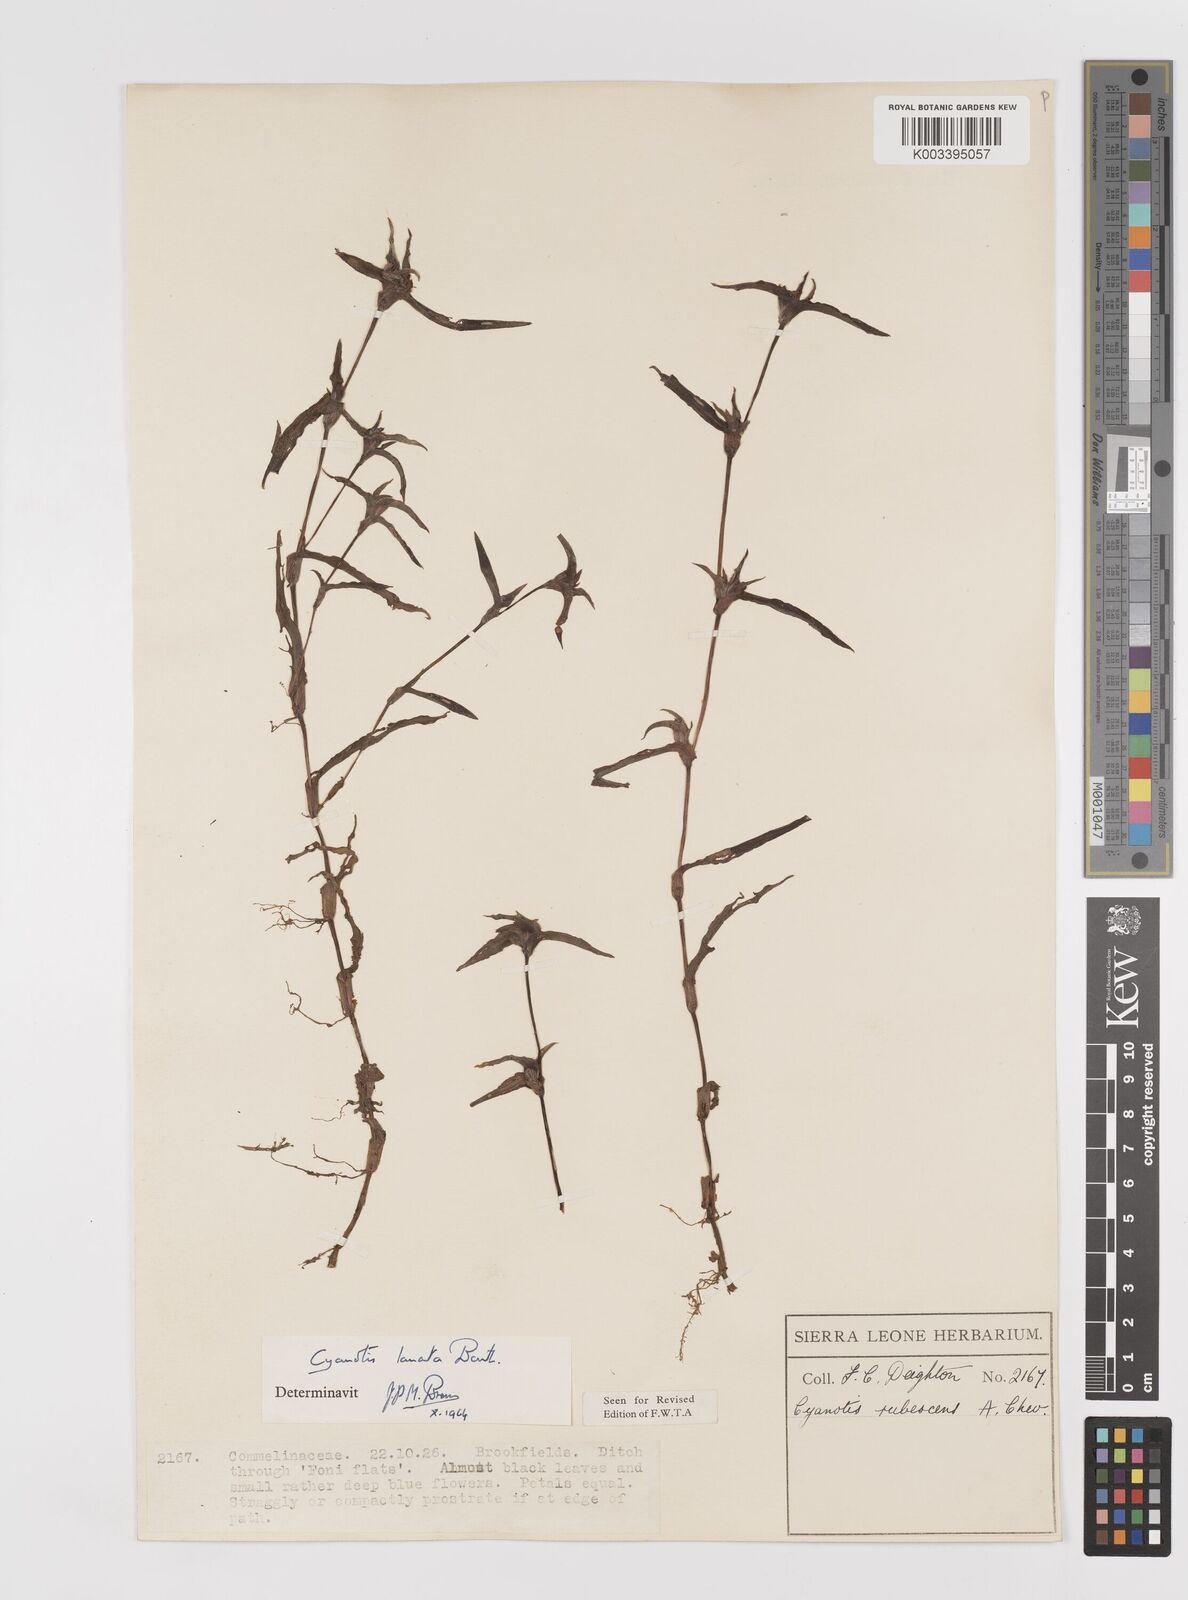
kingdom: Plantae
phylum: Tracheophyta
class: Liliopsida
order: Commelinales
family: Commelinaceae
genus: Cyanotis
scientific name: Cyanotis lanata
